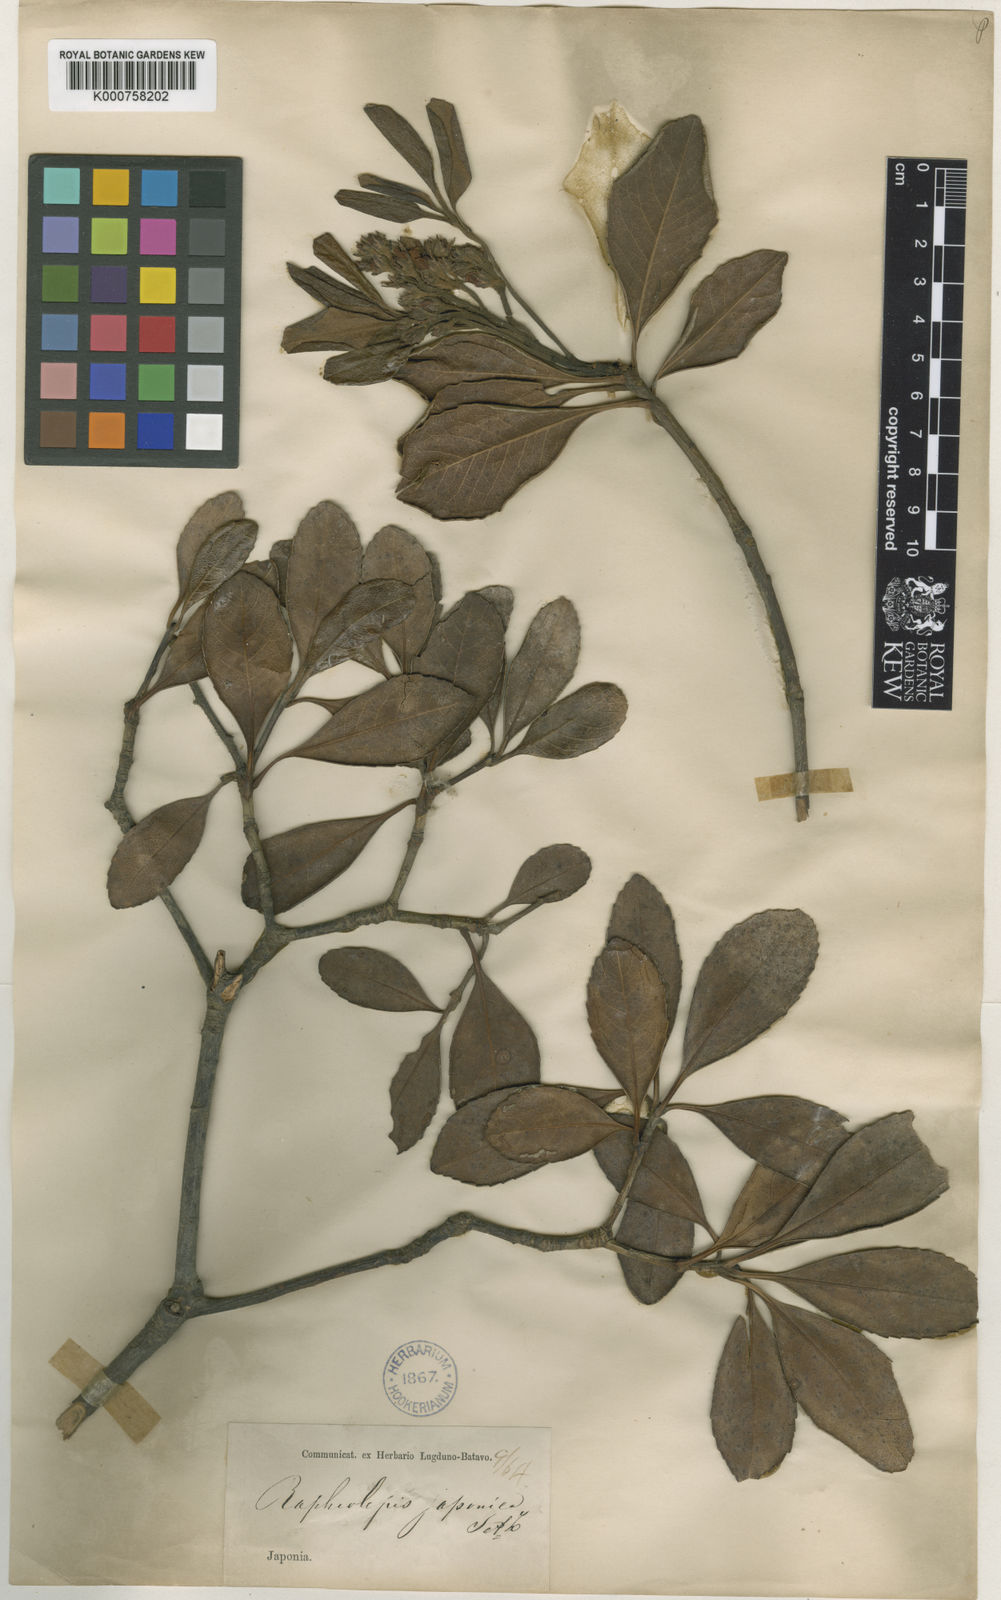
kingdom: Plantae
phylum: Tracheophyta
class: Magnoliopsida
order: Rosales
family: Rosaceae
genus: Rhaphiolepis
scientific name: Rhaphiolepis
